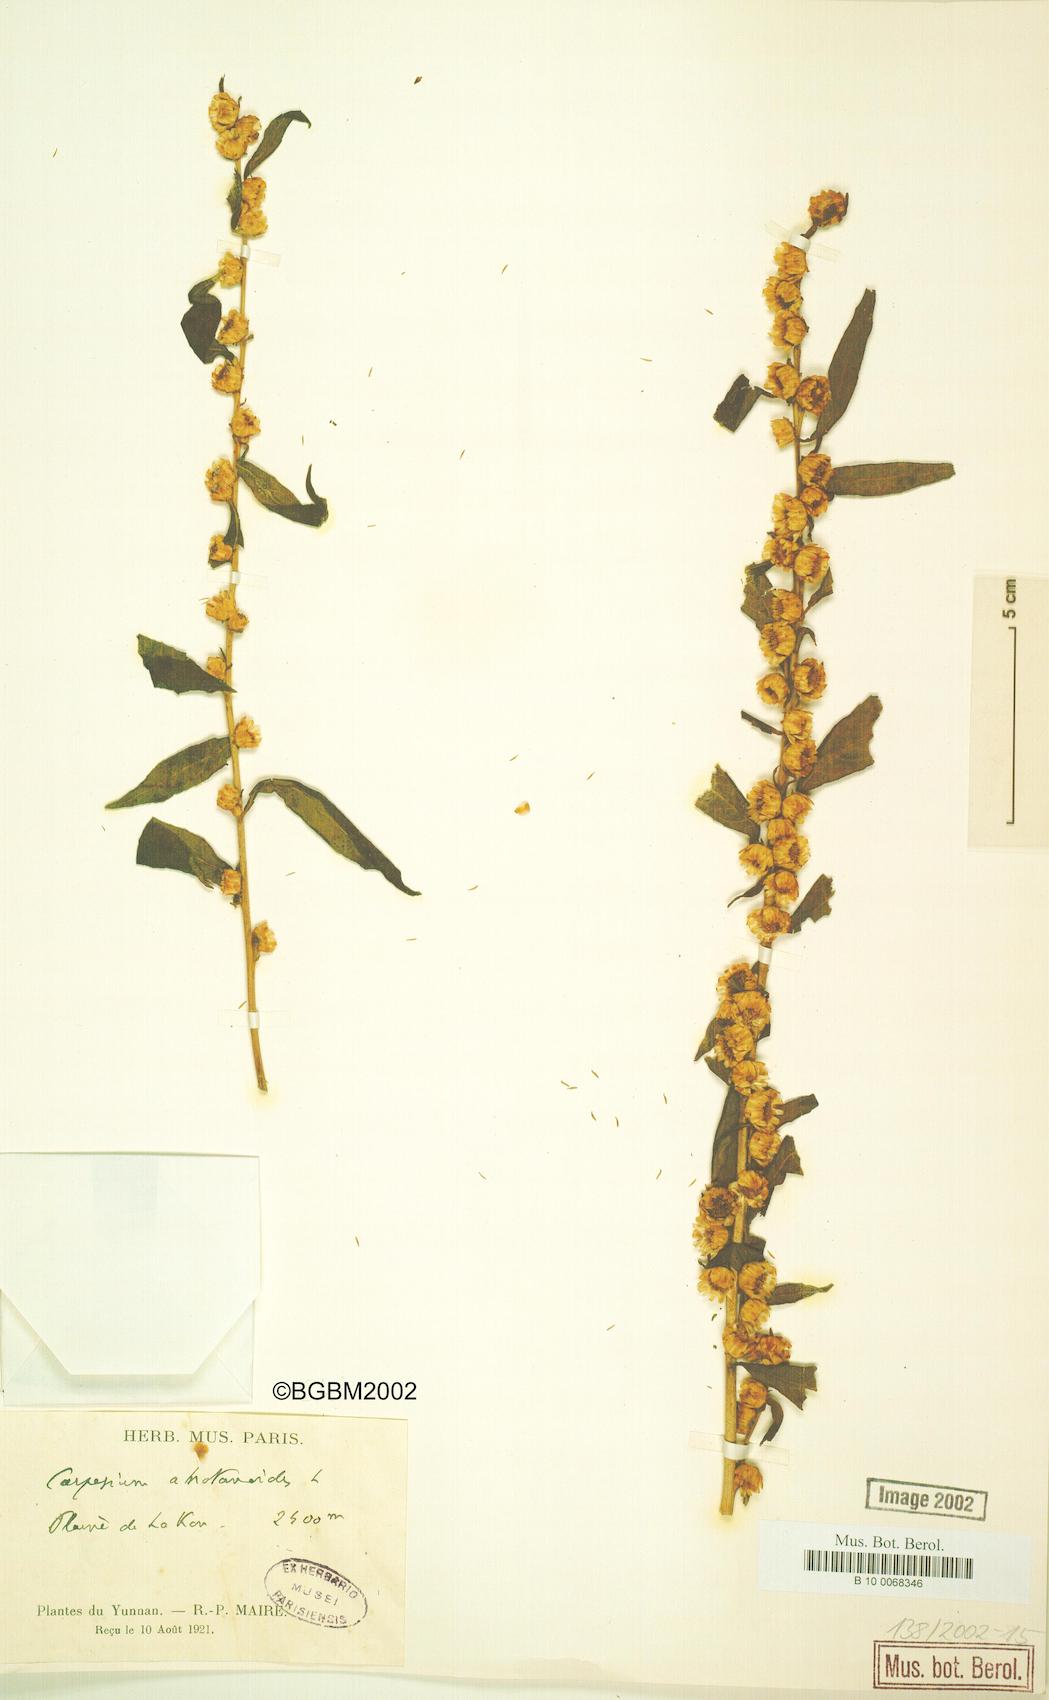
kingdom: Plantae
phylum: Tracheophyta
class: Magnoliopsida
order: Asterales
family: Asteraceae
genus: Carpesium
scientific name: Carpesium abrotanoides
